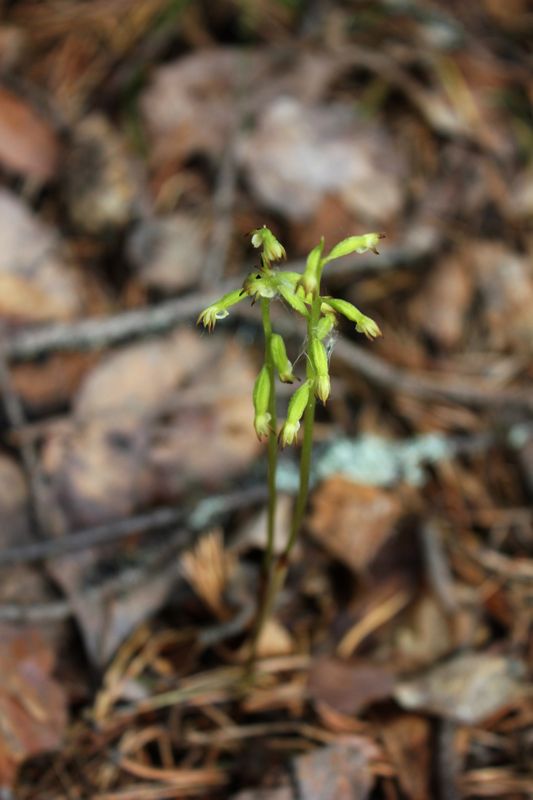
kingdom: Plantae
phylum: Tracheophyta
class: Liliopsida
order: Asparagales
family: Orchidaceae
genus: Corallorhiza
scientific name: Corallorhiza trifida
